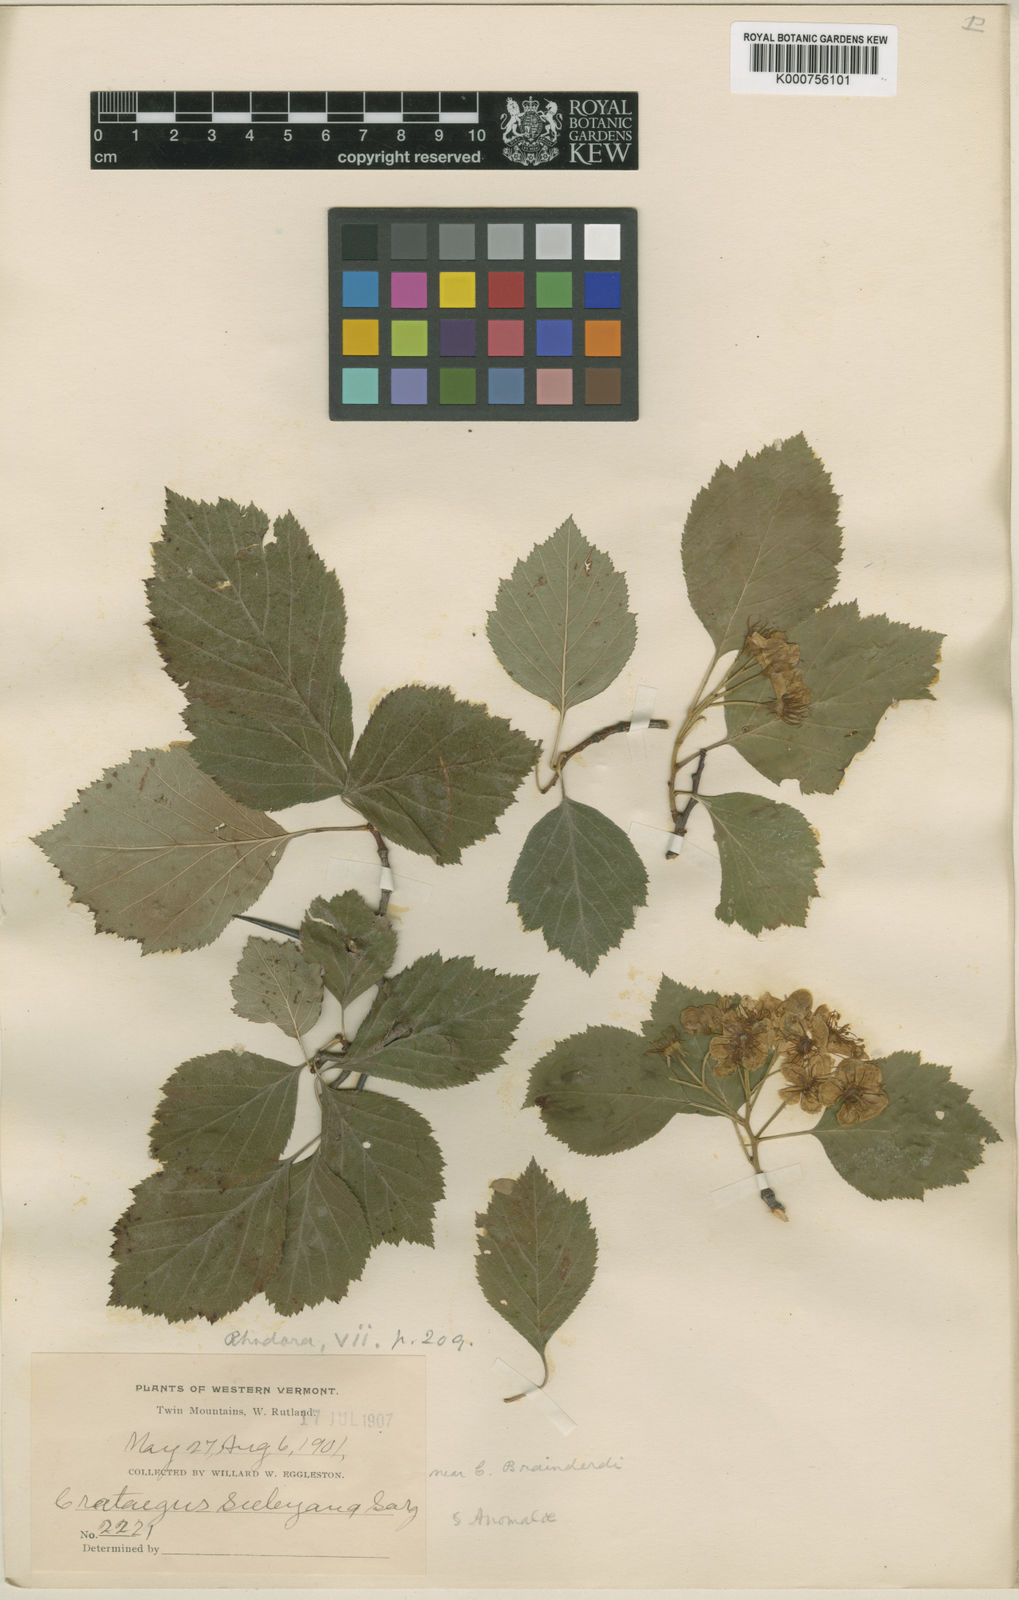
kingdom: Plantae
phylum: Tracheophyta
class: Magnoliopsida
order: Rosales
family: Rosaceae
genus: Crataegus
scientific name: Crataegus
